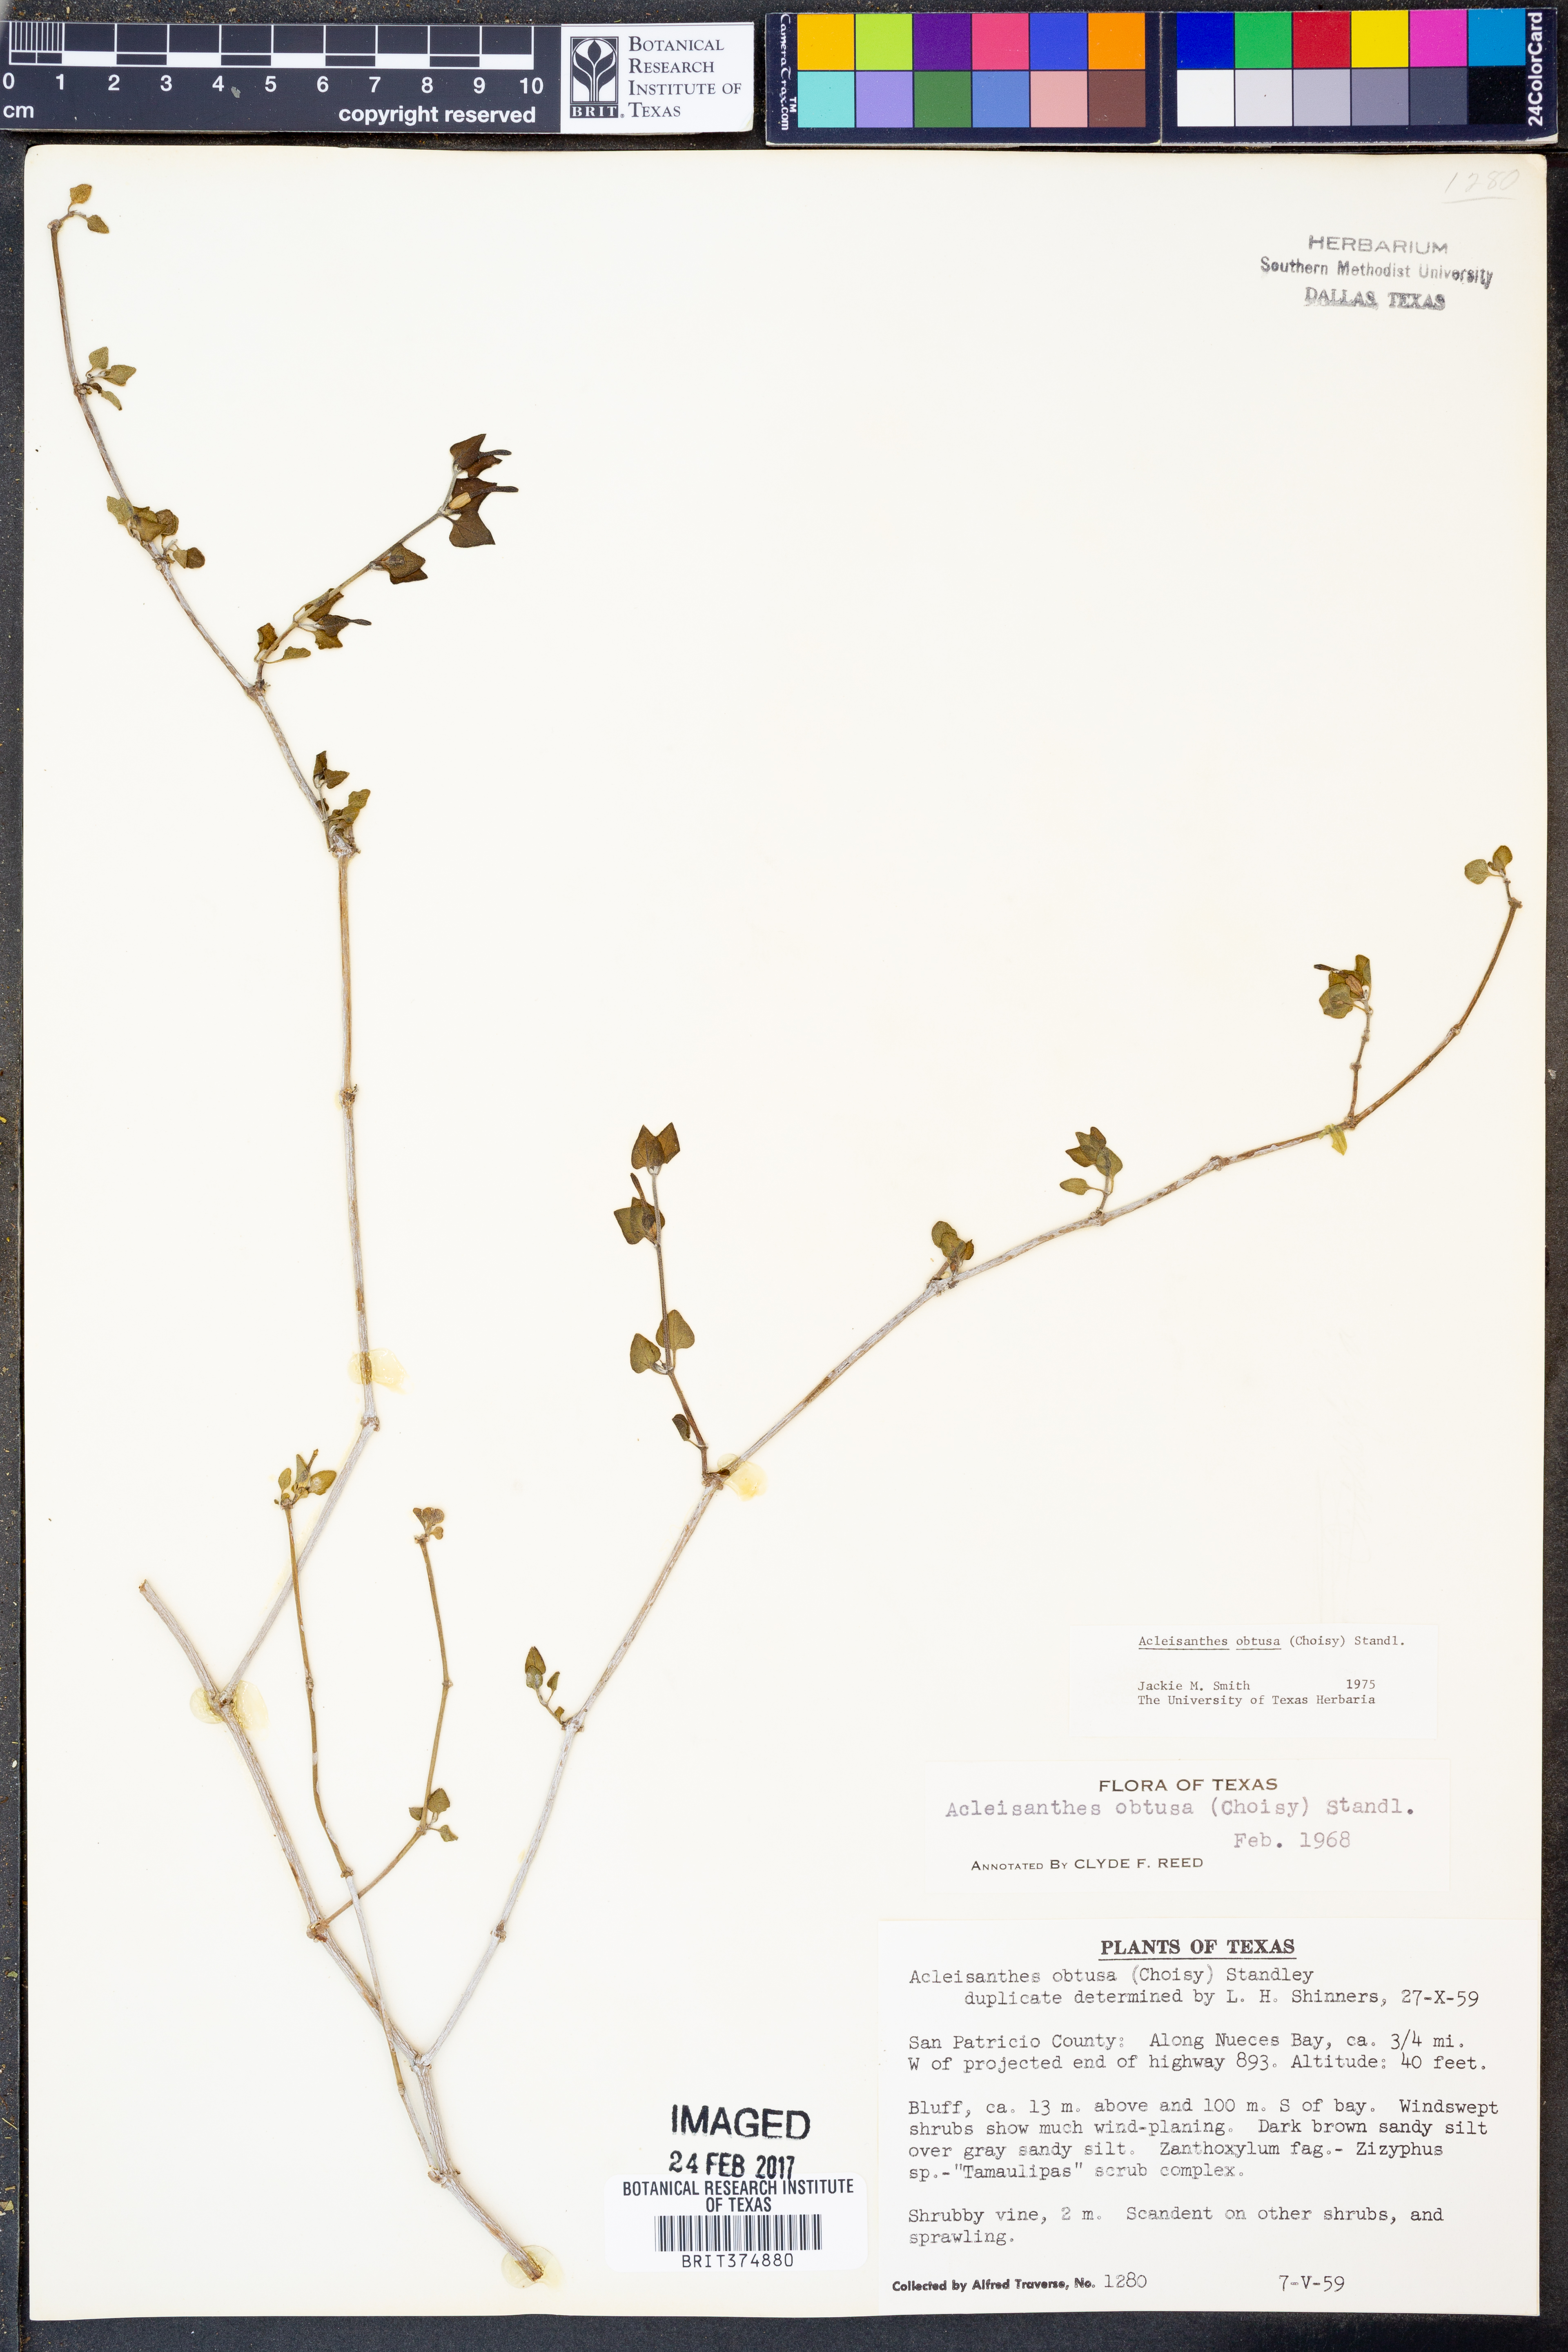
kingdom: Plantae
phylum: Tracheophyta
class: Magnoliopsida
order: Caryophyllales
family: Nyctaginaceae
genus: Acleisanthes
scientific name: Acleisanthes longiflora
